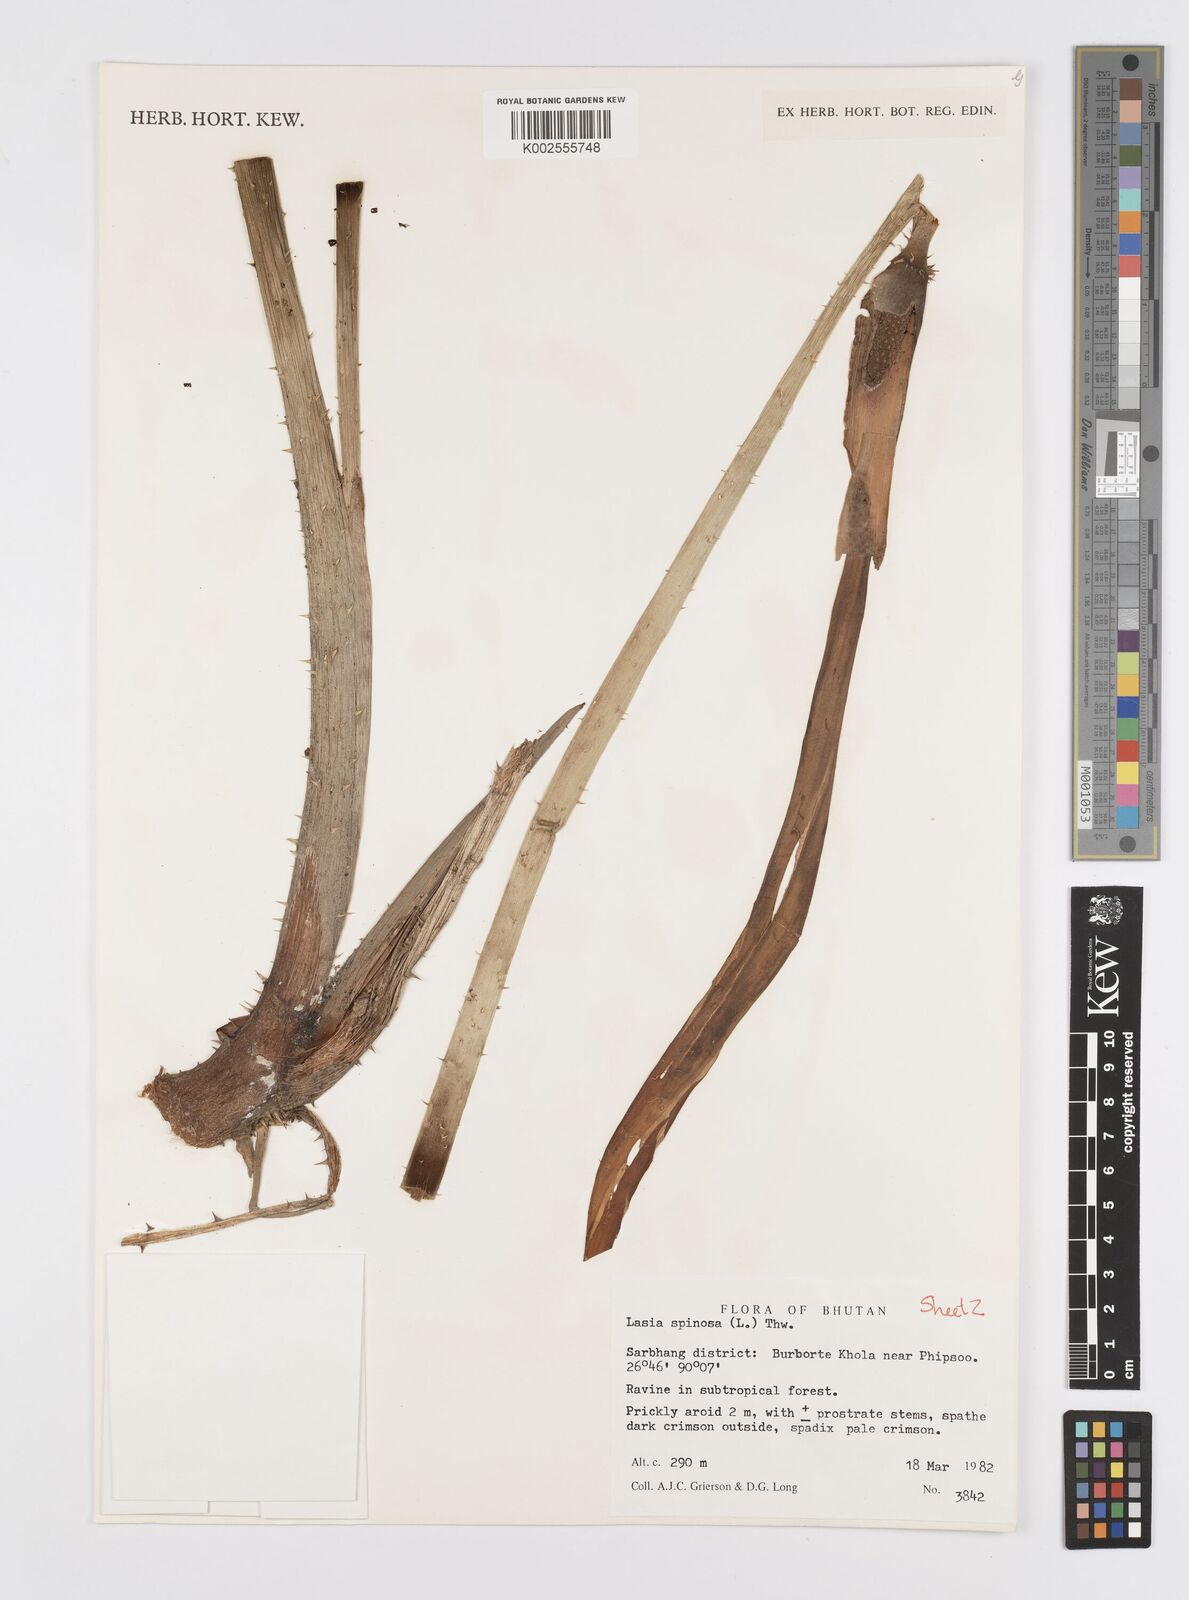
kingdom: Plantae
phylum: Tracheophyta
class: Liliopsida
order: Alismatales
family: Araceae
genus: Lasia
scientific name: Lasia spinosa
